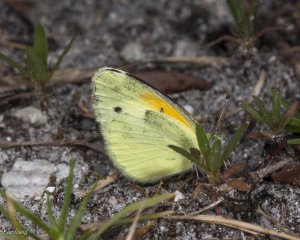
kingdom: Animalia
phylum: Arthropoda
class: Insecta
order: Lepidoptera
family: Pieridae
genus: Nathalis
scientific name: Nathalis iole
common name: Dainty Sulphur
